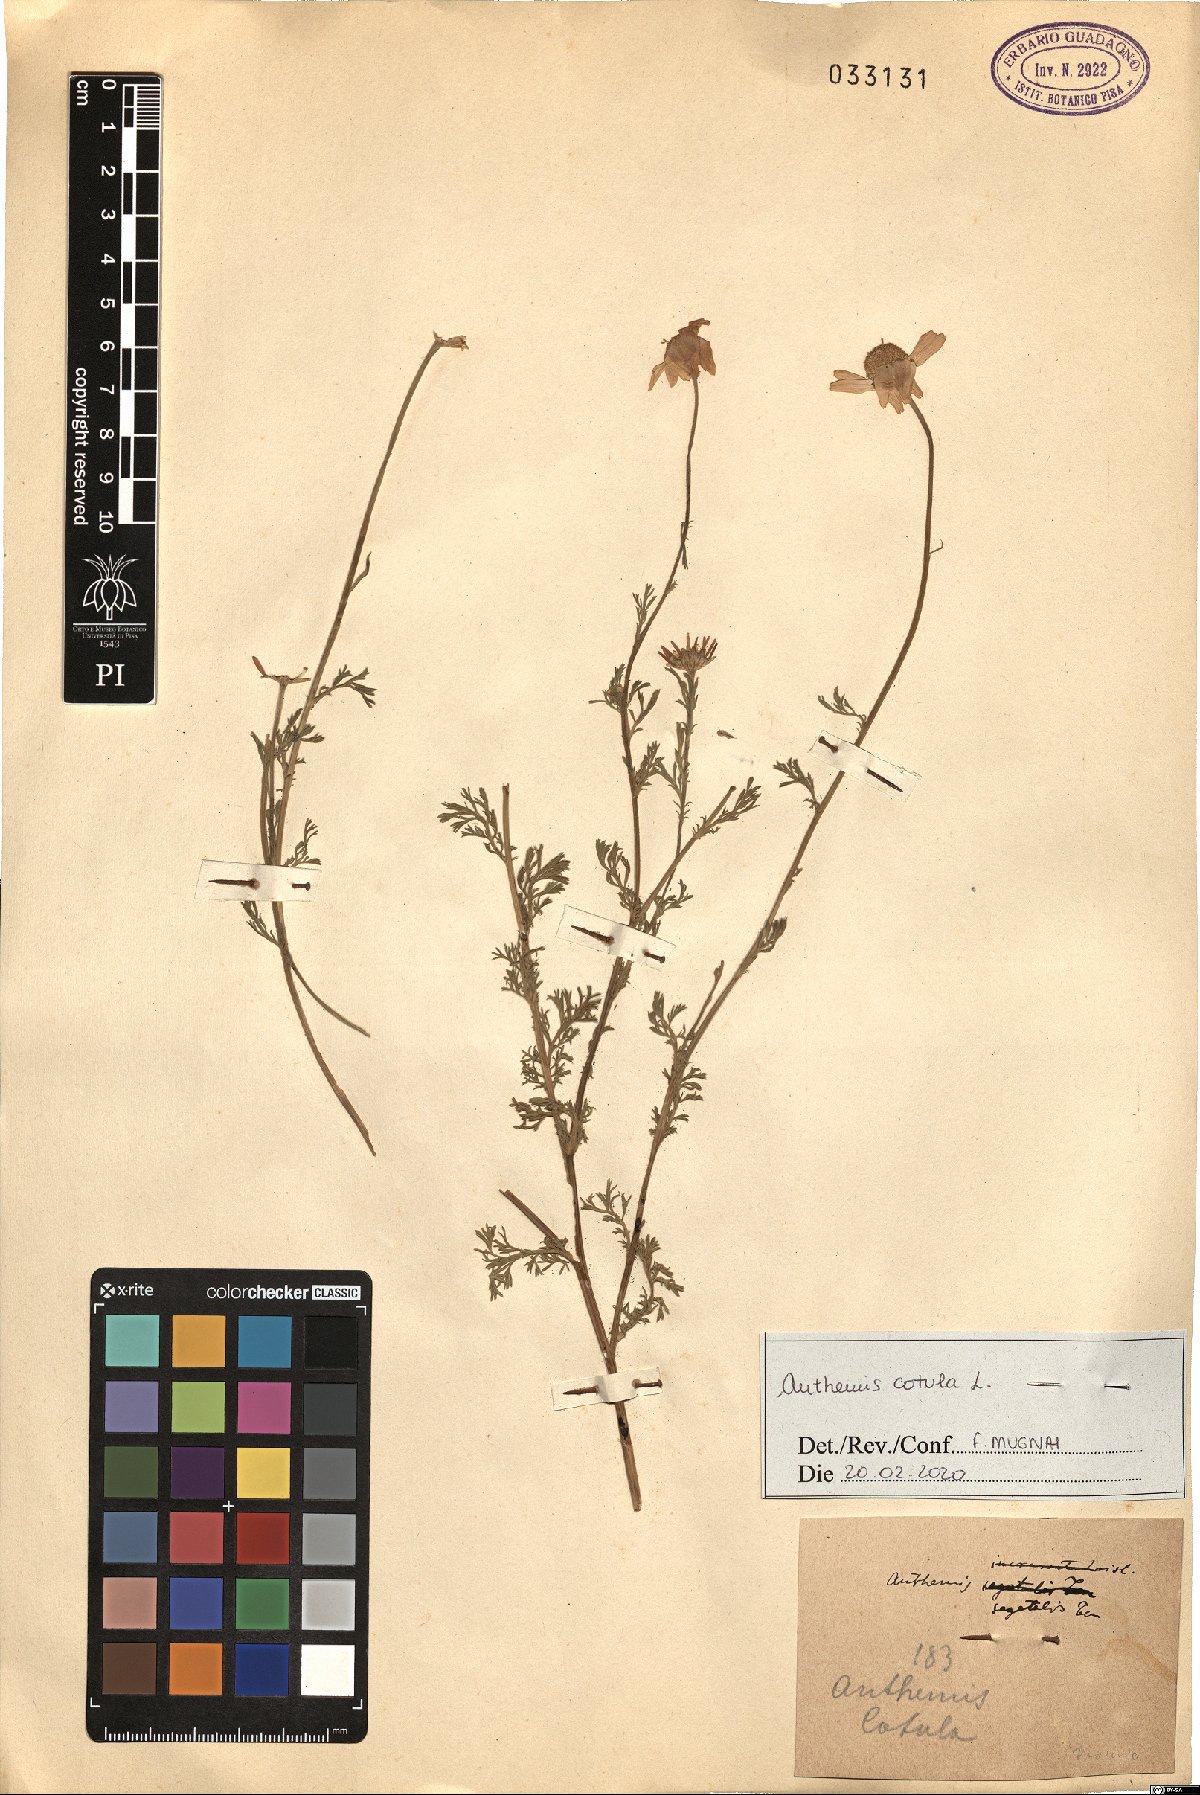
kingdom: Plantae
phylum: Tracheophyta
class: Magnoliopsida
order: Asterales
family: Asteraceae
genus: Anthemis
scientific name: Anthemis cotula
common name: Stinking chamomile
